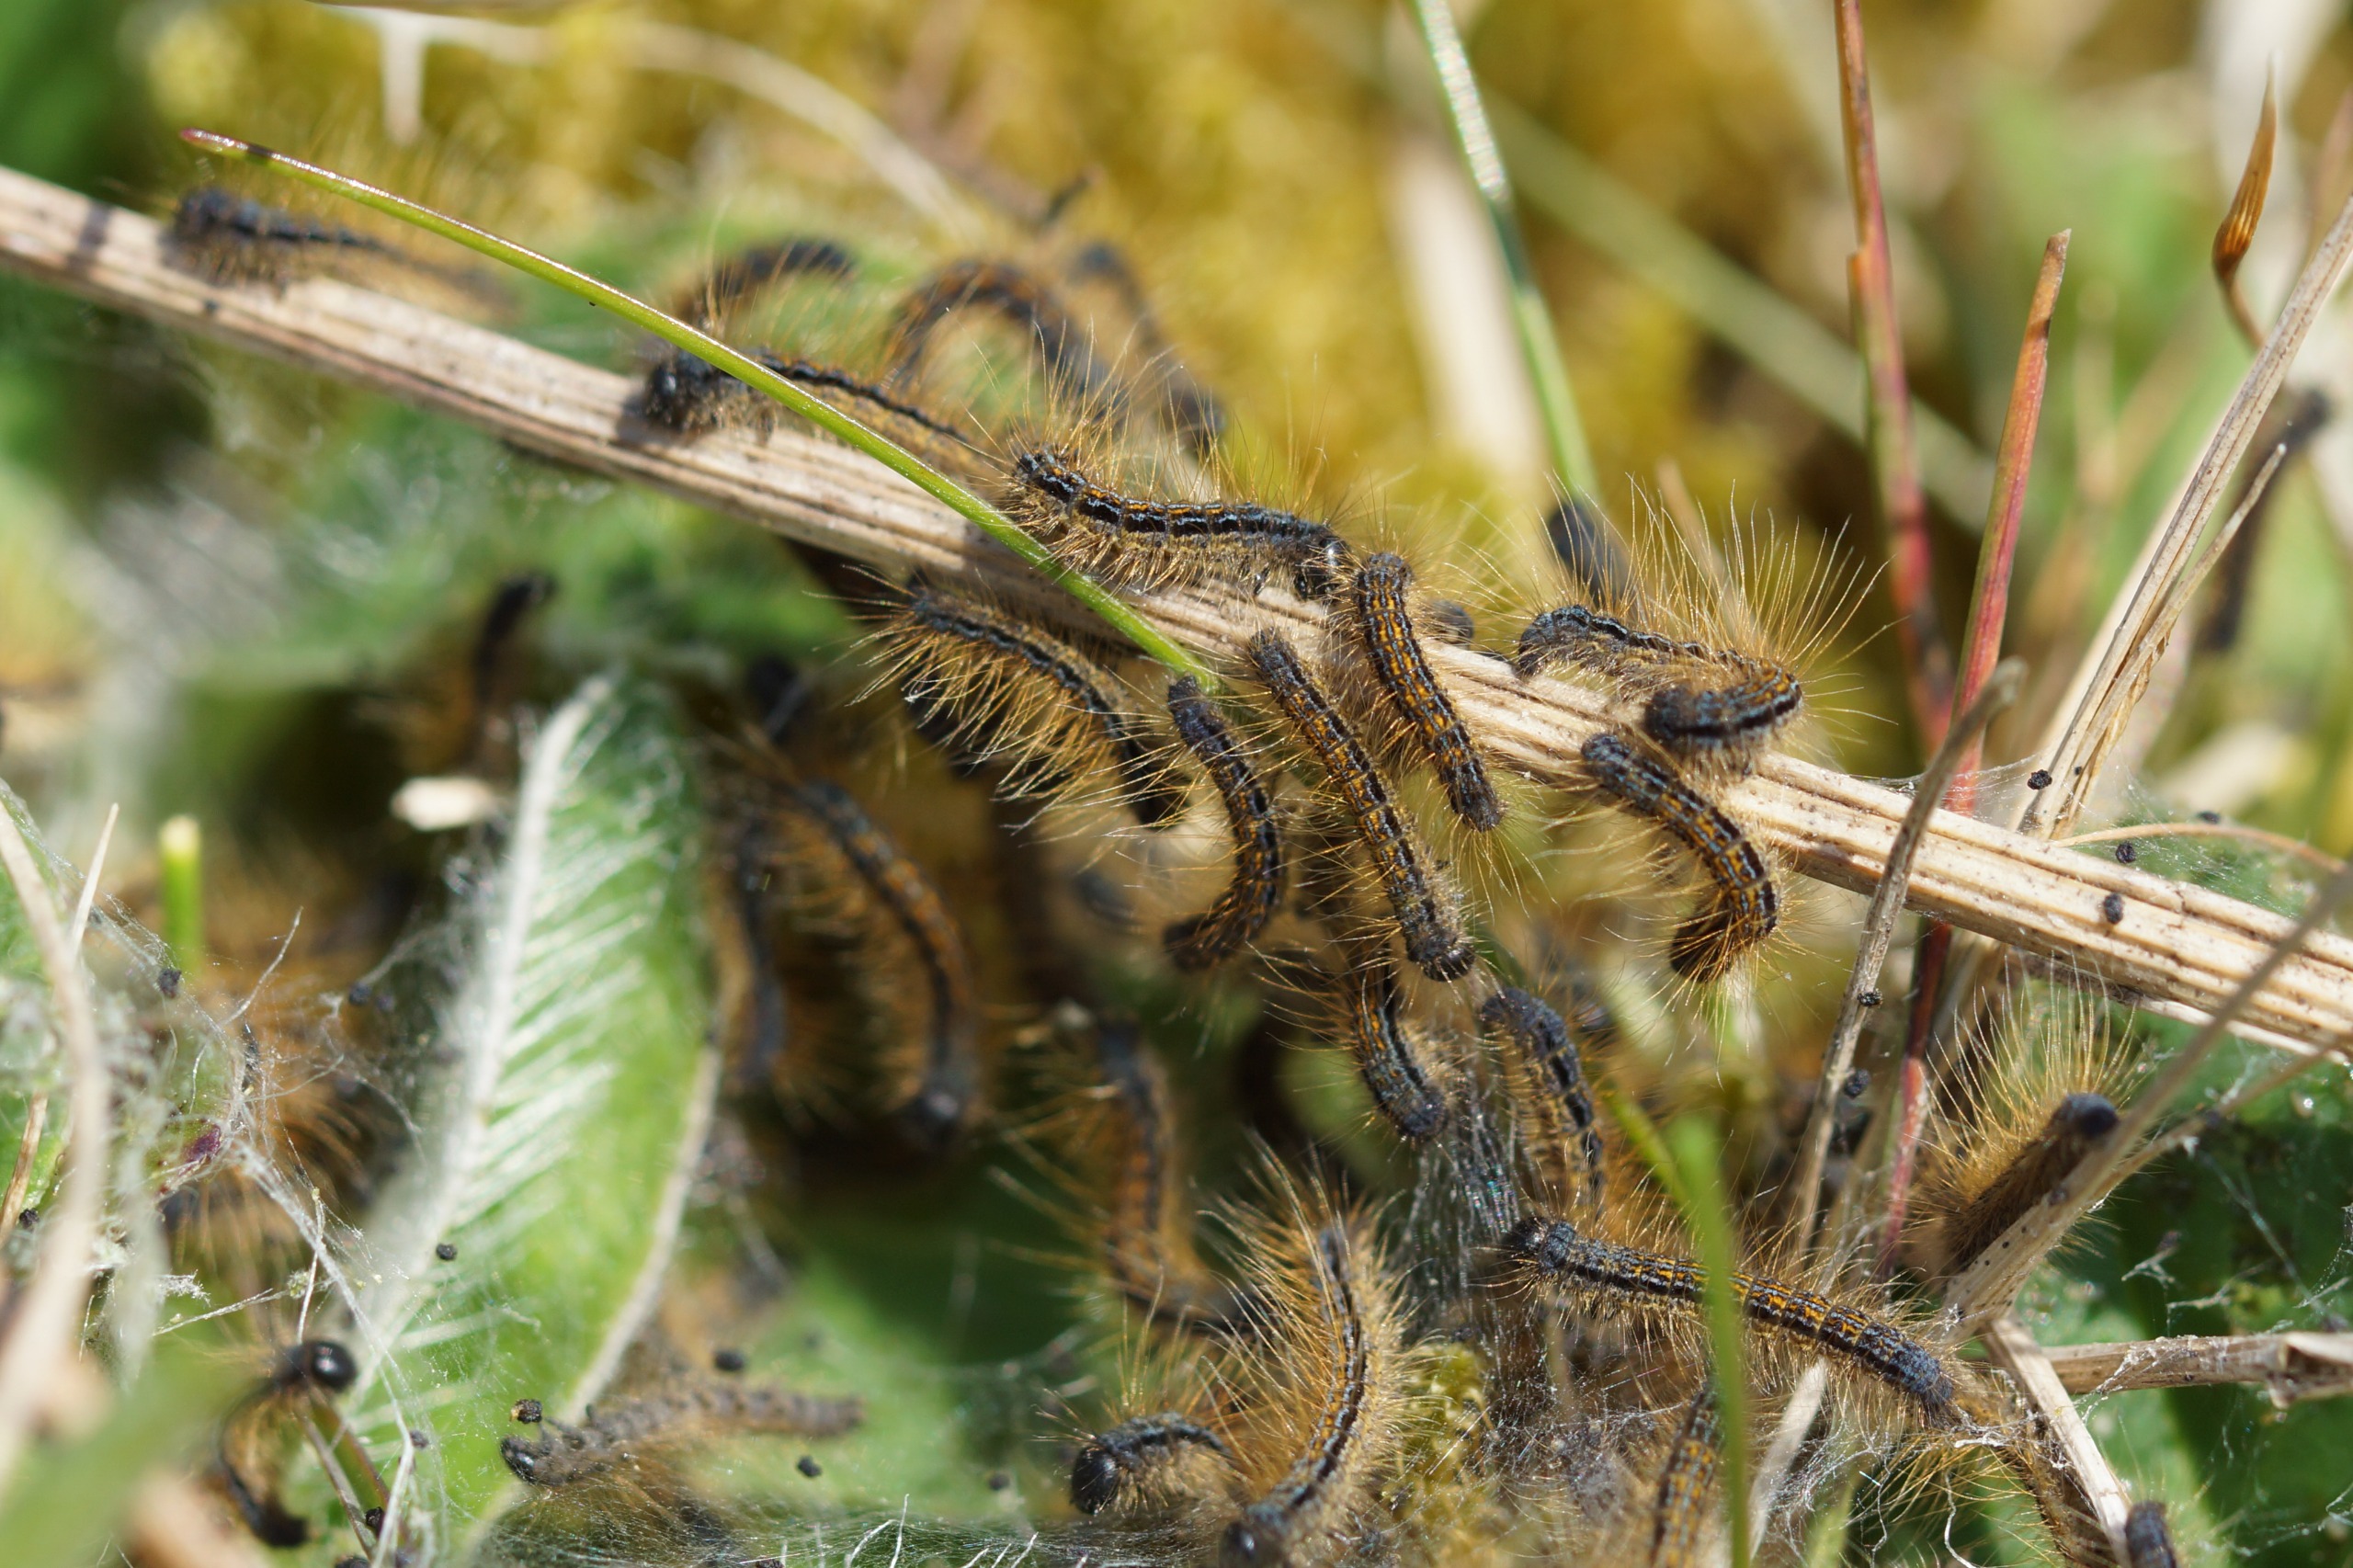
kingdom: Animalia
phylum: Arthropoda
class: Insecta
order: Lepidoptera
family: Lasiocampidae
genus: Malacosoma
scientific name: Malacosoma castrensis
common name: Redespinder
